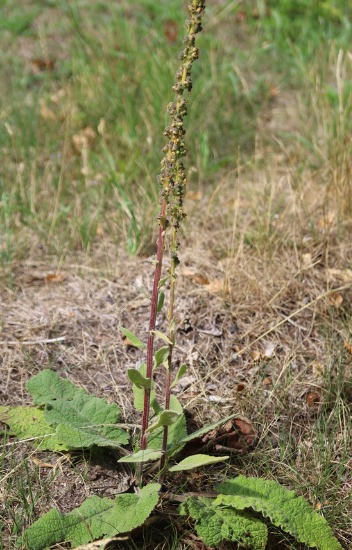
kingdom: Plantae
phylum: Tracheophyta
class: Magnoliopsida
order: Lamiales
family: Scrophulariaceae
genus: Verbascum
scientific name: Verbascum nigrum
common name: Mørk kongelys
